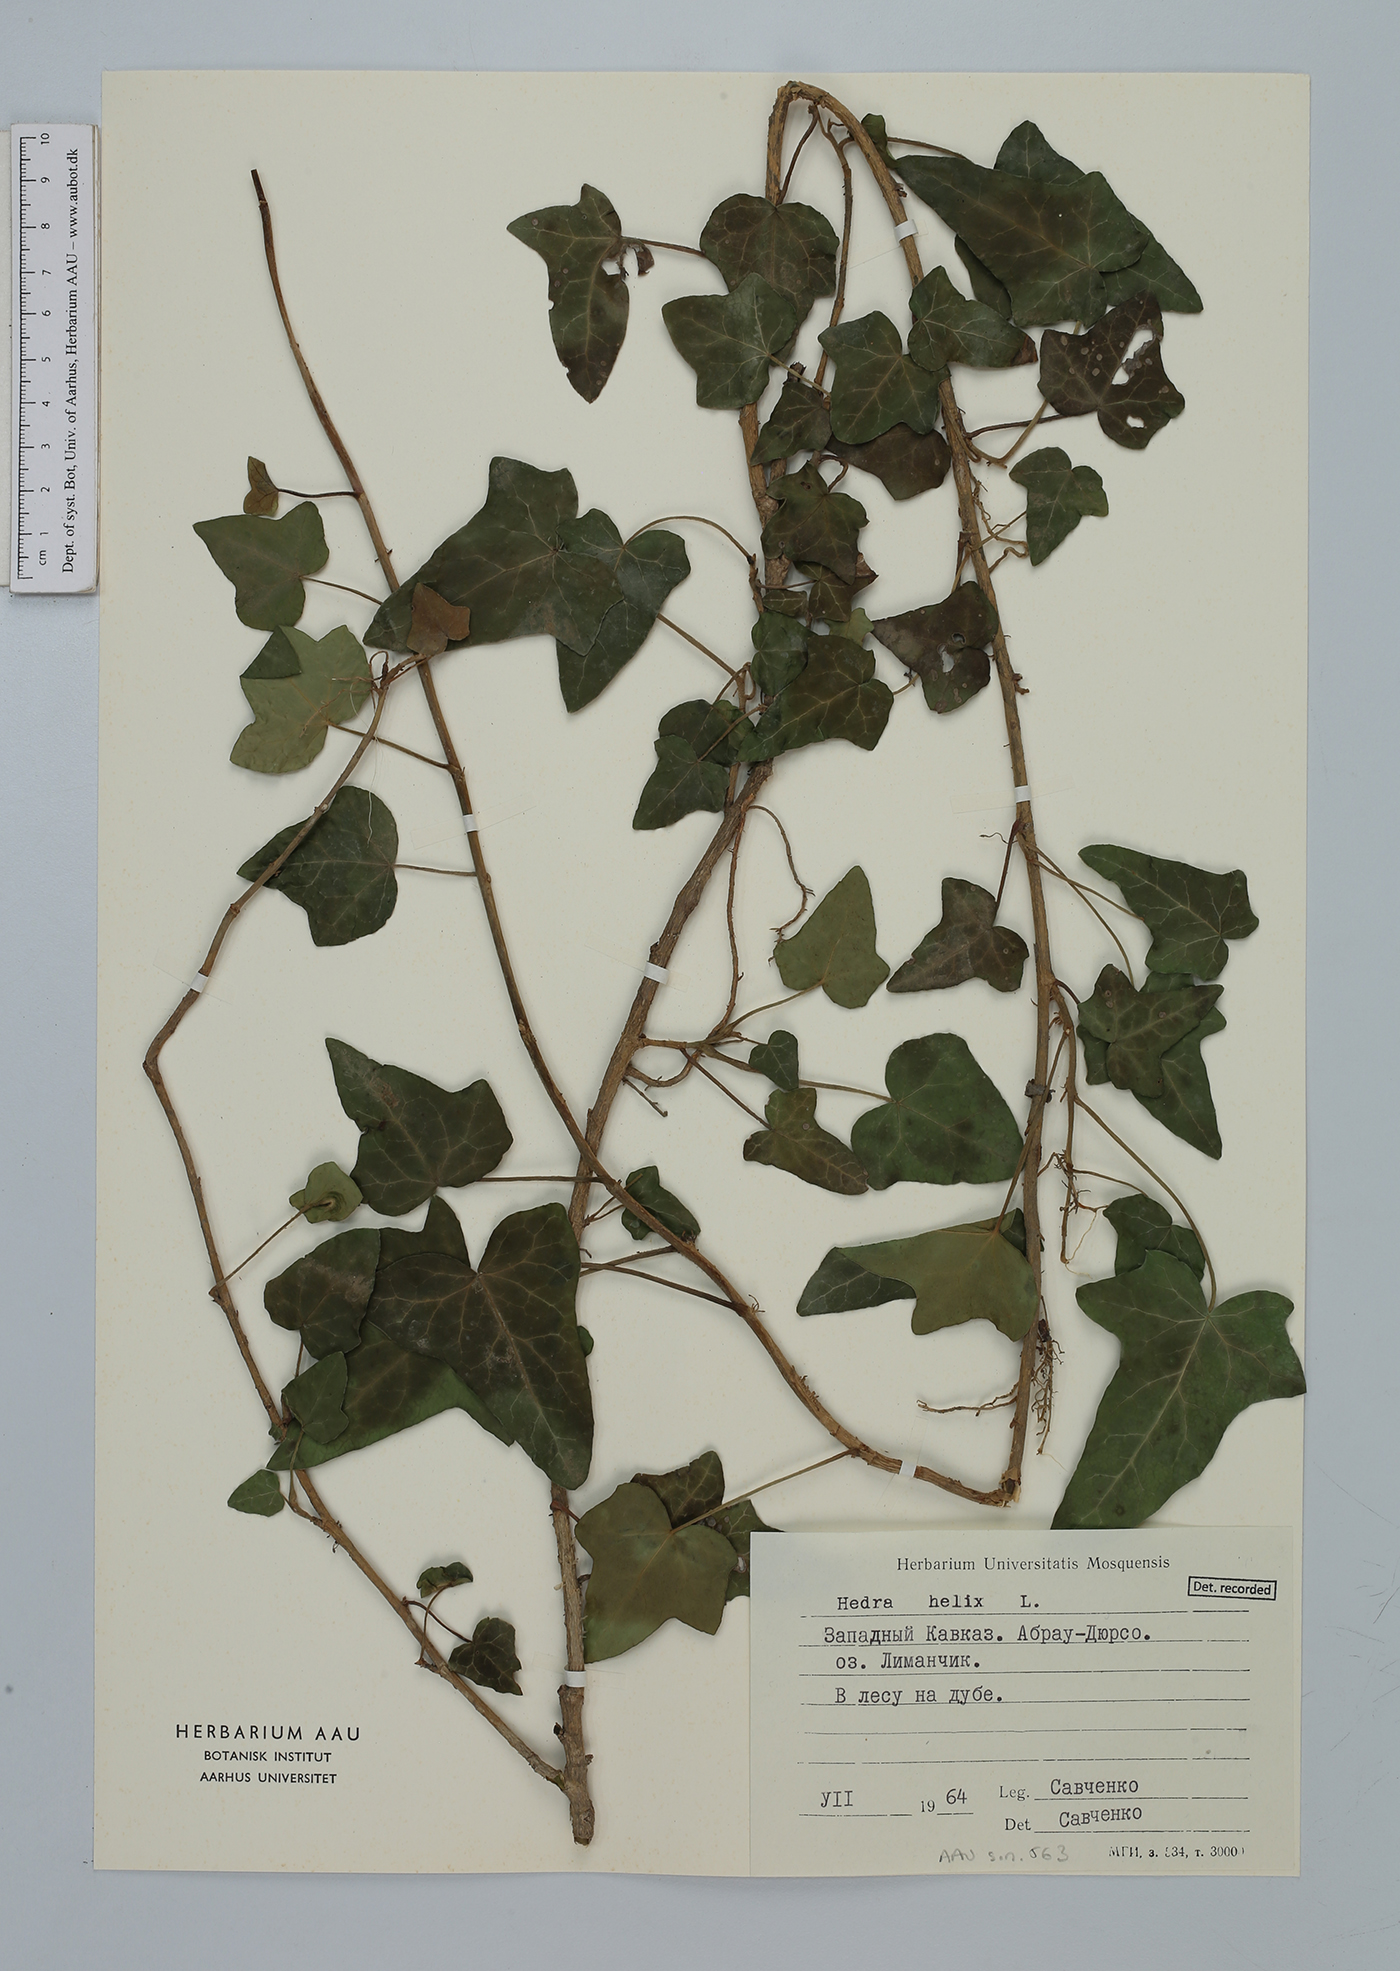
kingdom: Plantae
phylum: Tracheophyta
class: Magnoliopsida
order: Apiales
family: Araliaceae
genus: Hedera
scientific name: Hedera helix
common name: Ivy
